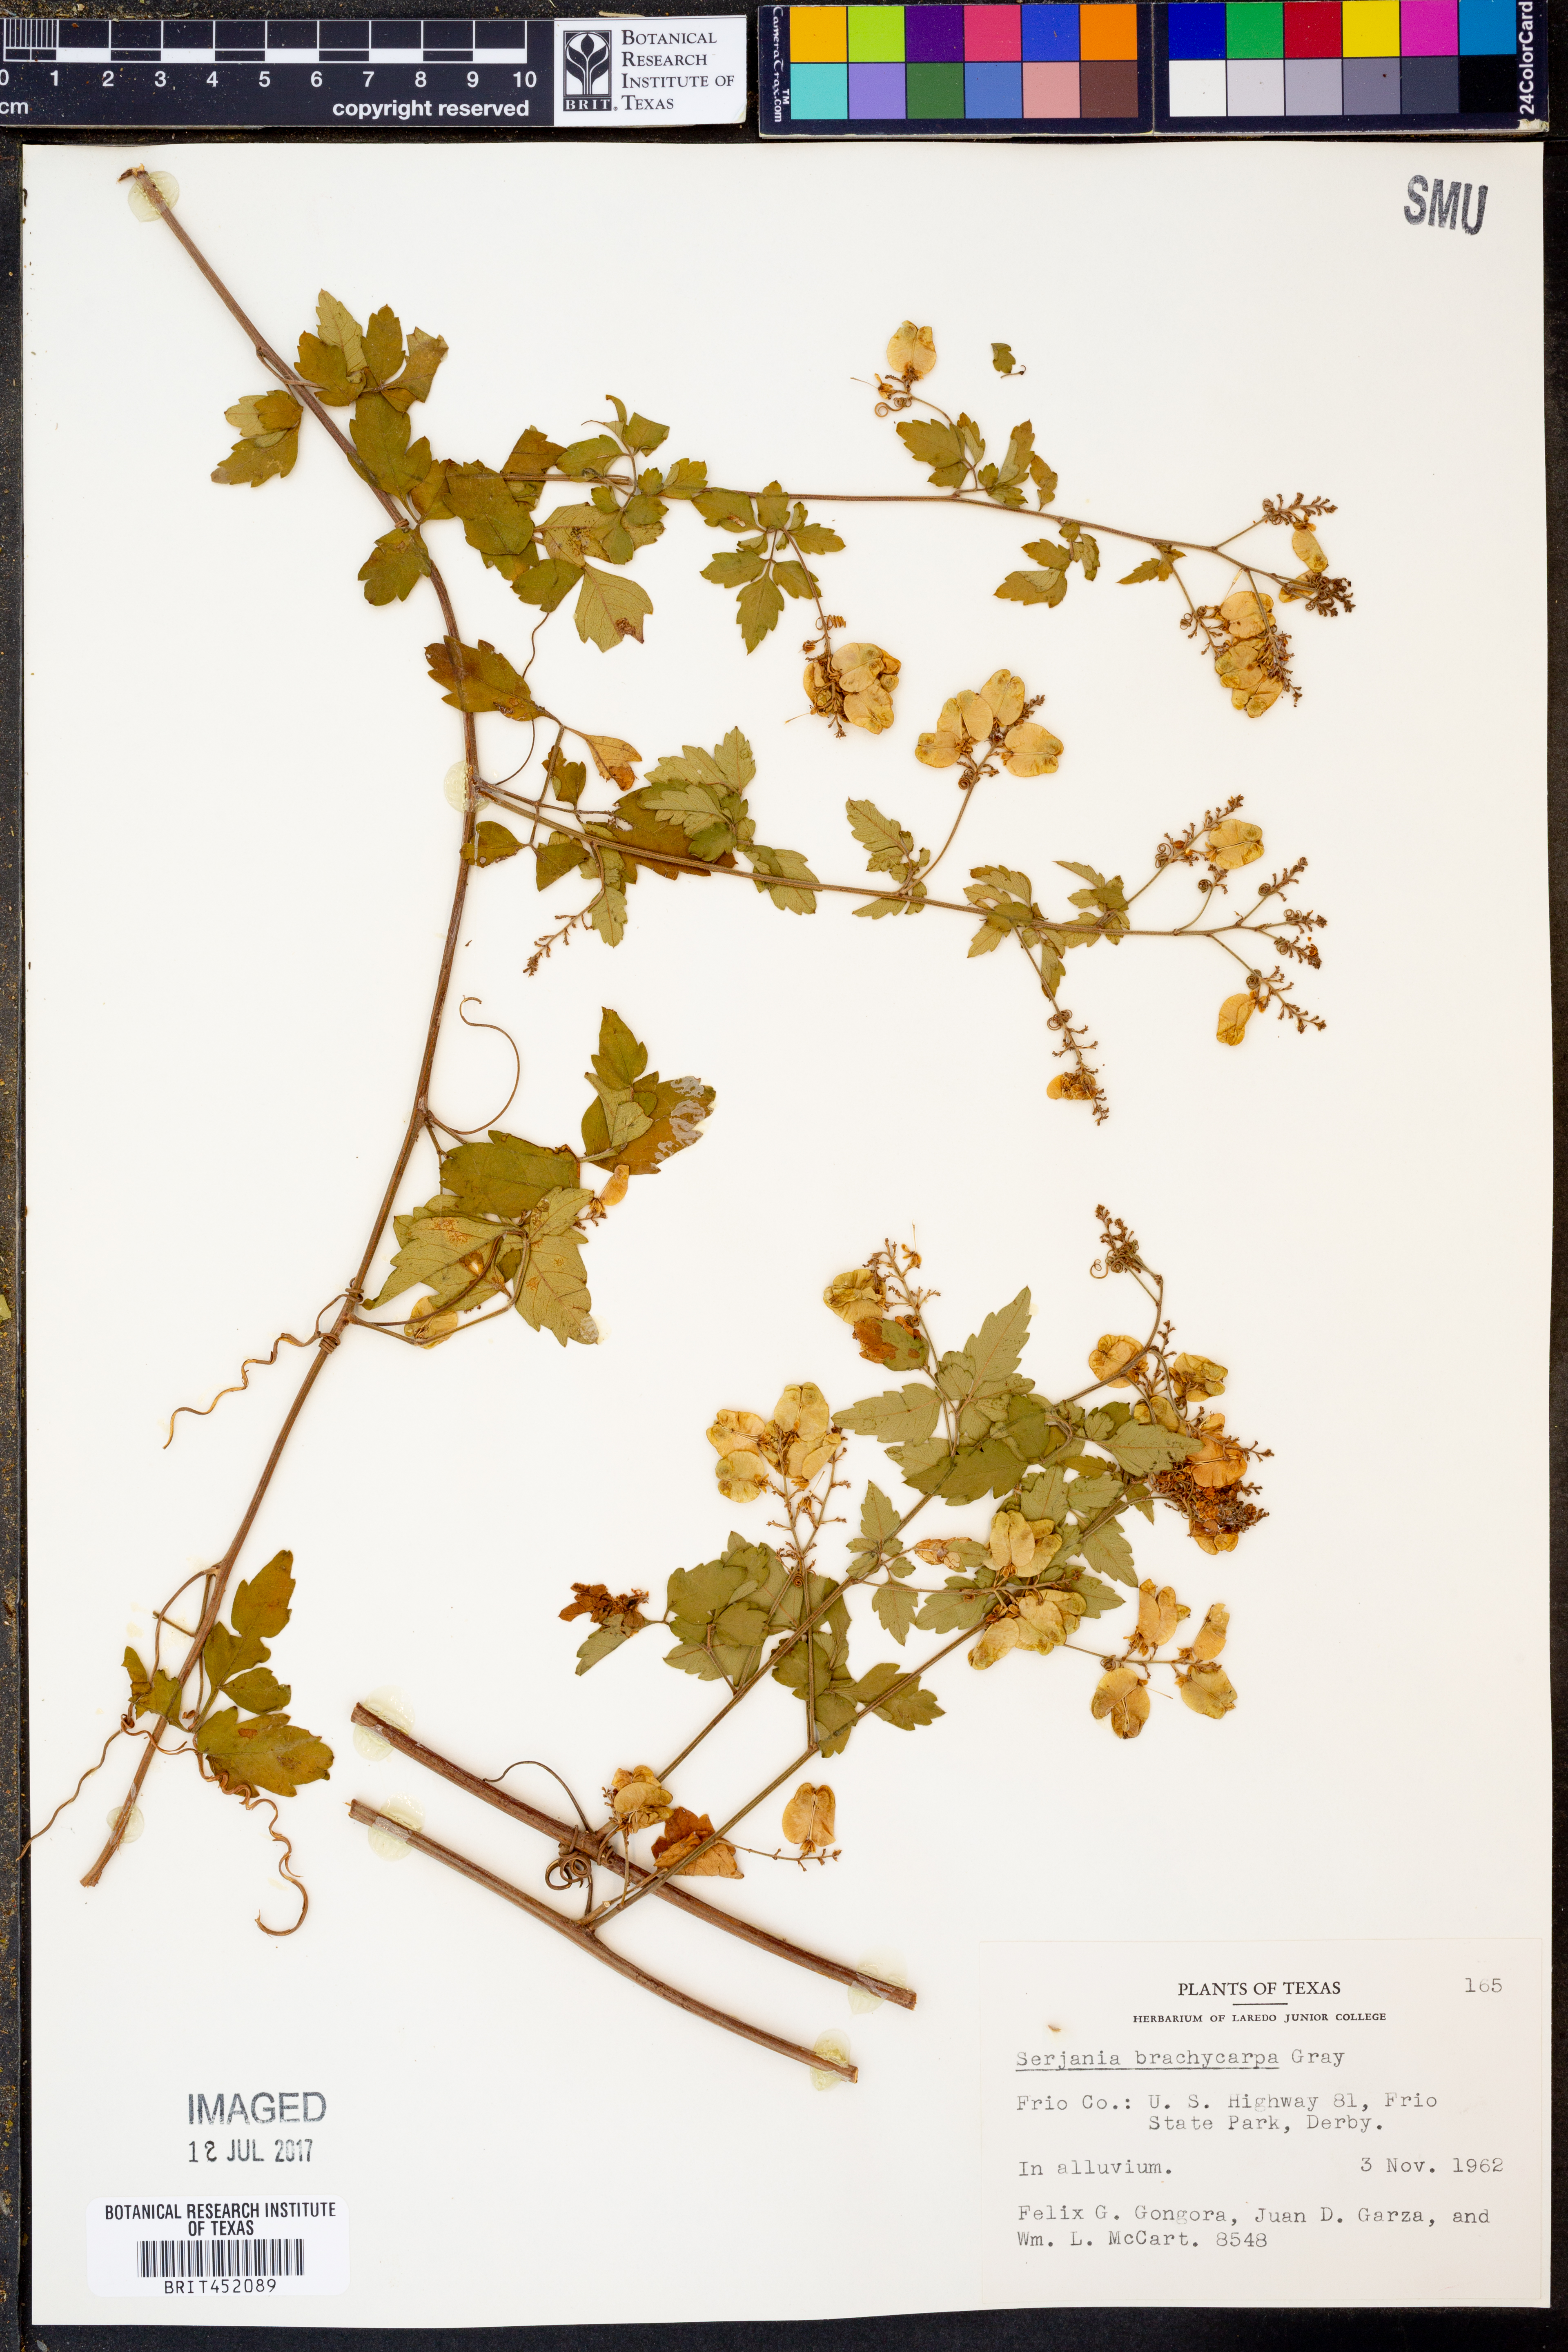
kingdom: Plantae
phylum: Tracheophyta
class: Magnoliopsida
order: Sapindales
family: Sapindaceae
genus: Serjania
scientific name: Serjania brachycarpa
